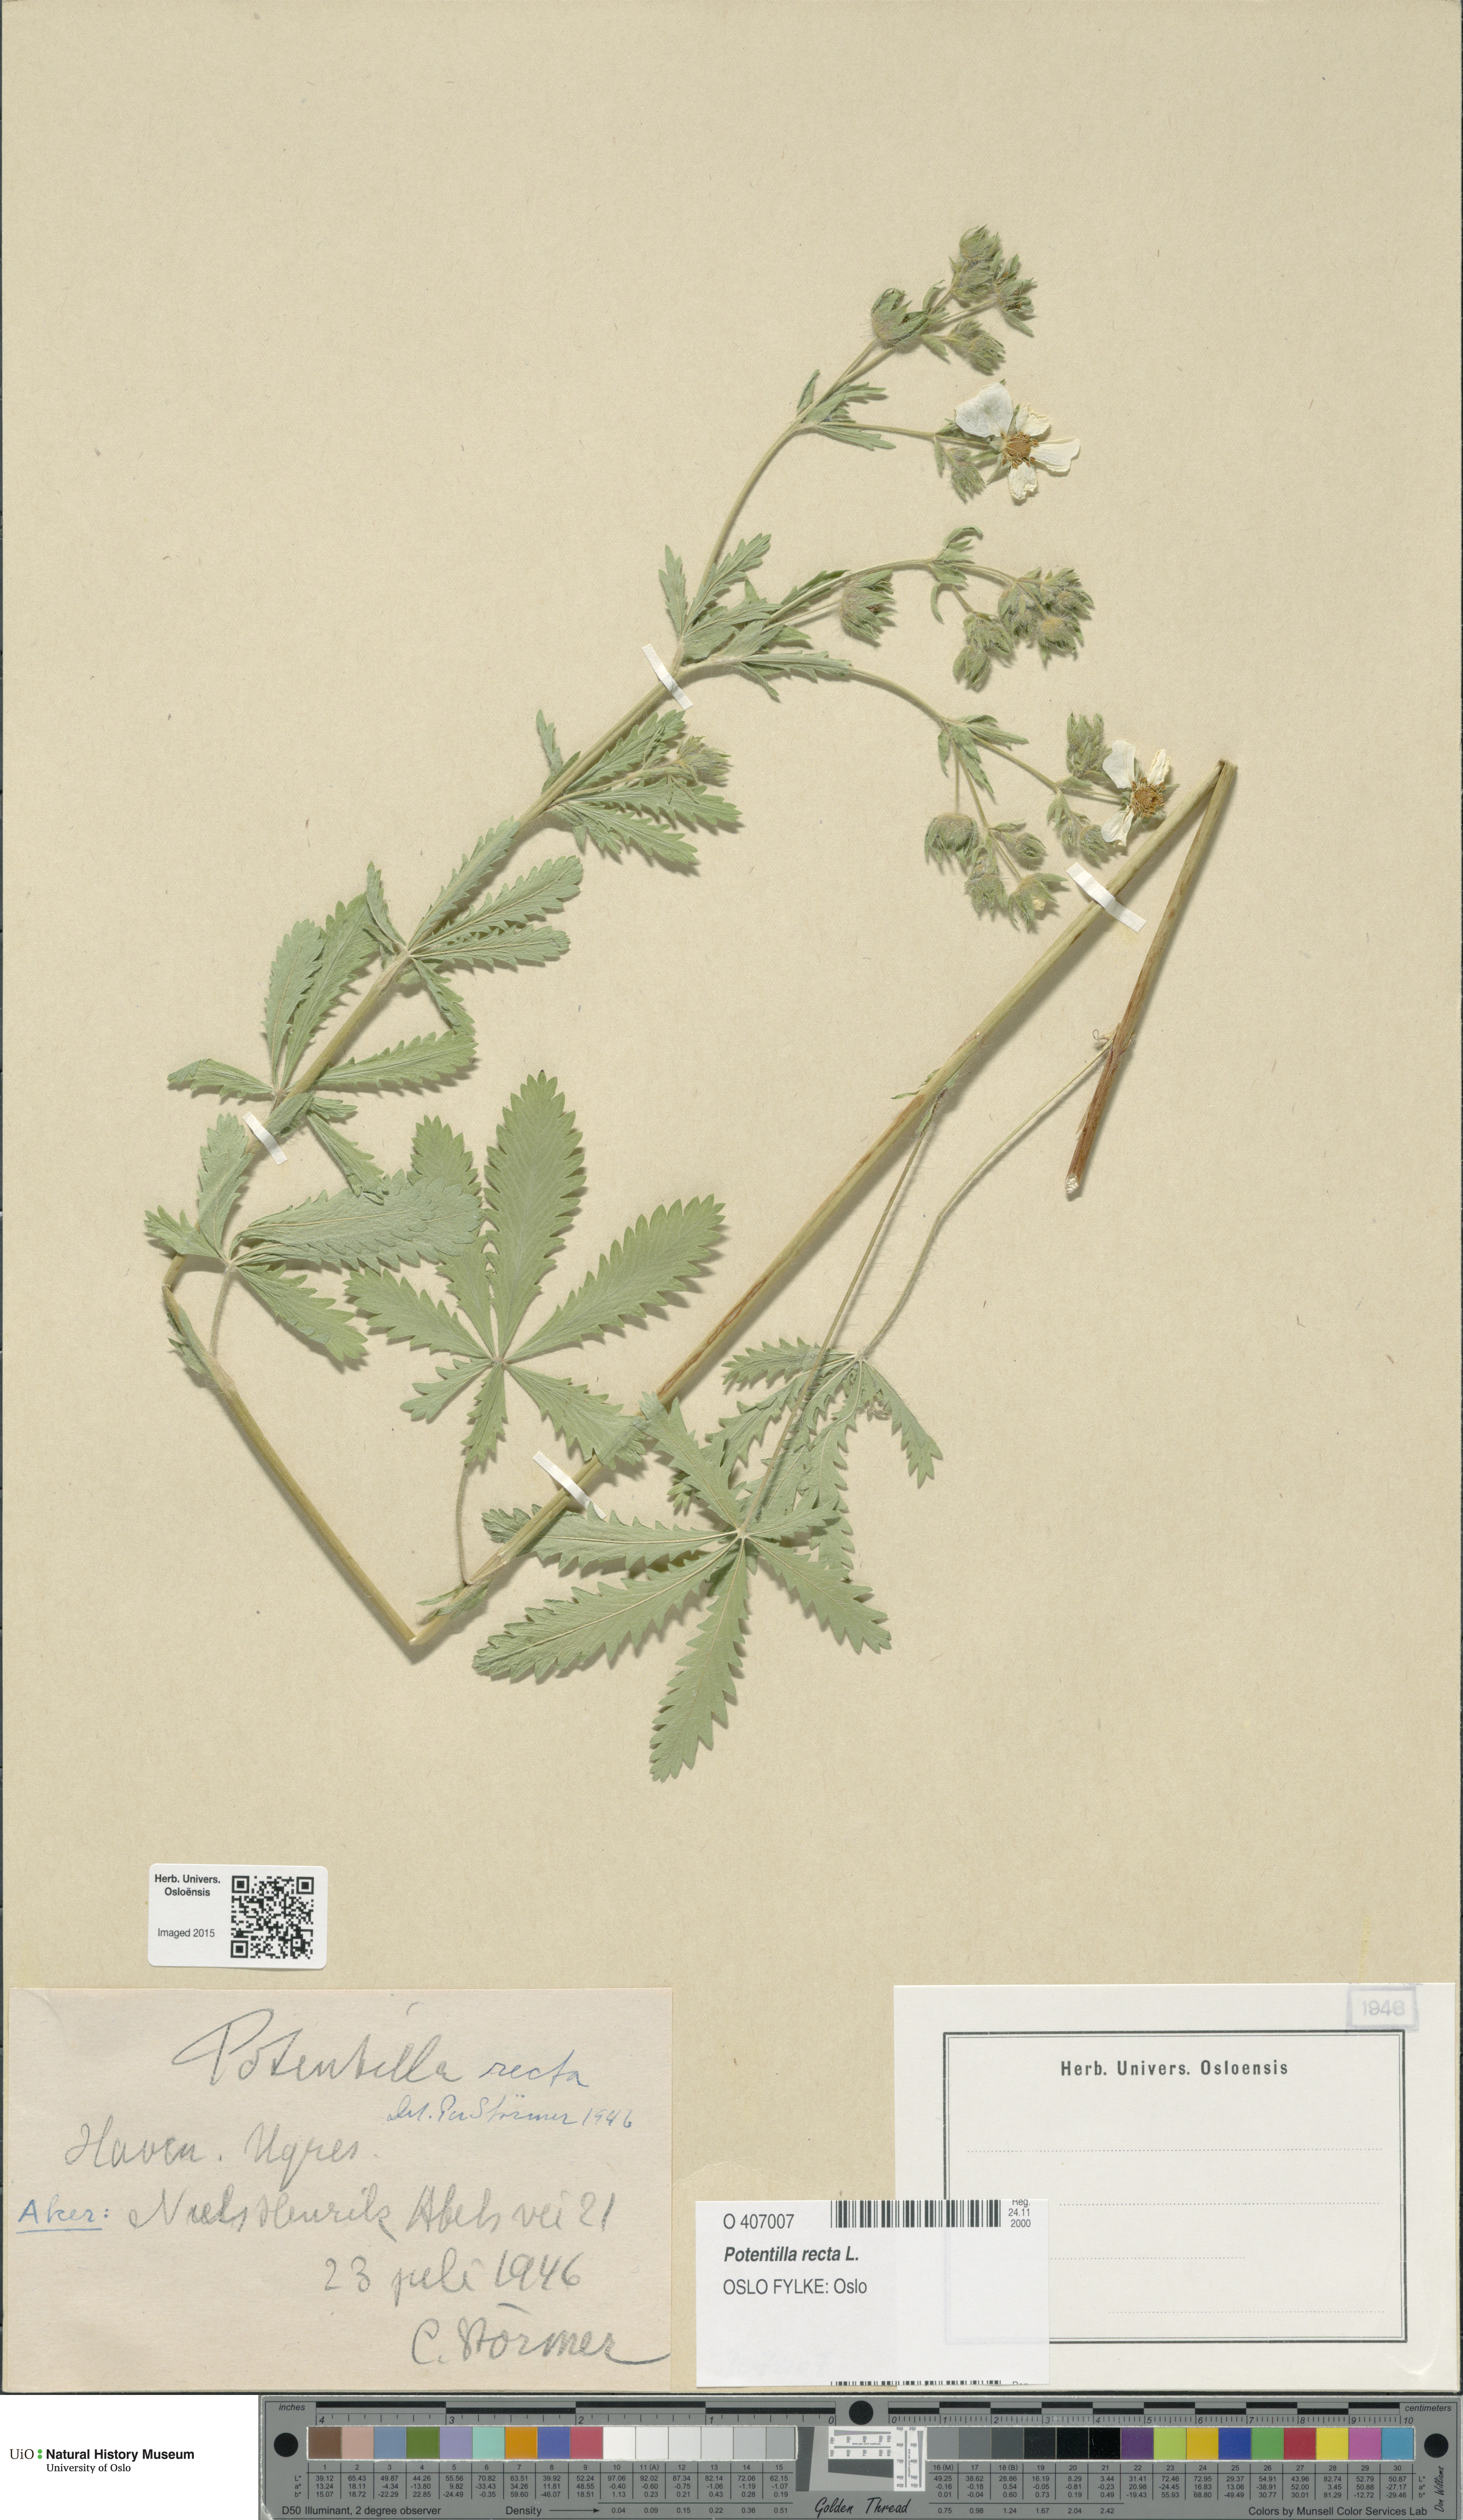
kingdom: Plantae
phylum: Tracheophyta
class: Magnoliopsida
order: Rosales
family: Rosaceae
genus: Potentilla
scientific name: Potentilla recta
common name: Sulphur cinquefoil
